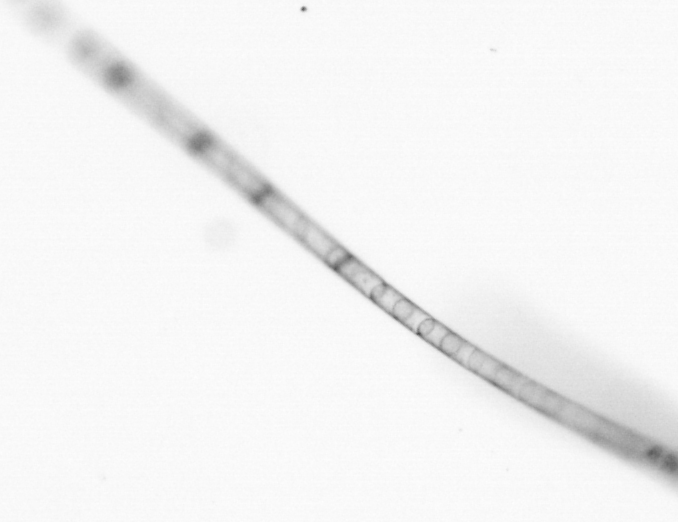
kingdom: Chromista
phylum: Ochrophyta
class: Bacillariophyceae
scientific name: Bacillariophyceae
